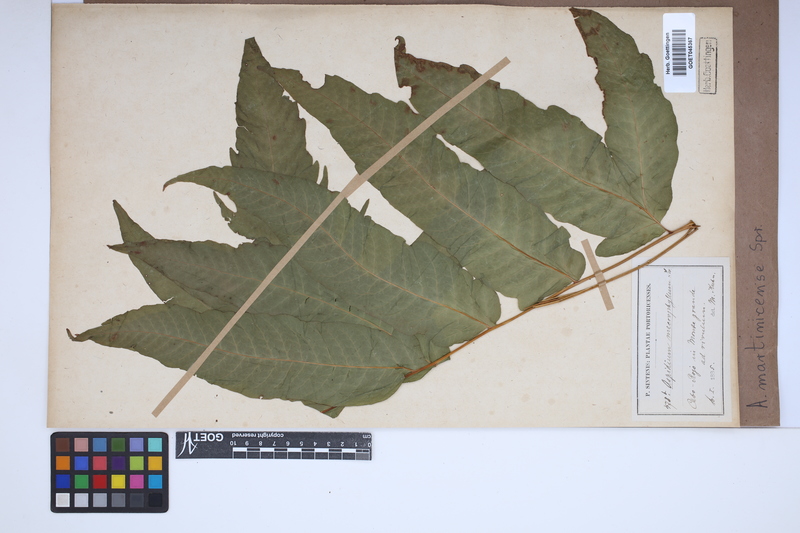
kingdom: Plantae
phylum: Tracheophyta
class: Polypodiopsida
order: Polypodiales
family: Tectariaceae
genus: Tectaria
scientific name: Tectaria incisa
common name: Incised halberd fern
